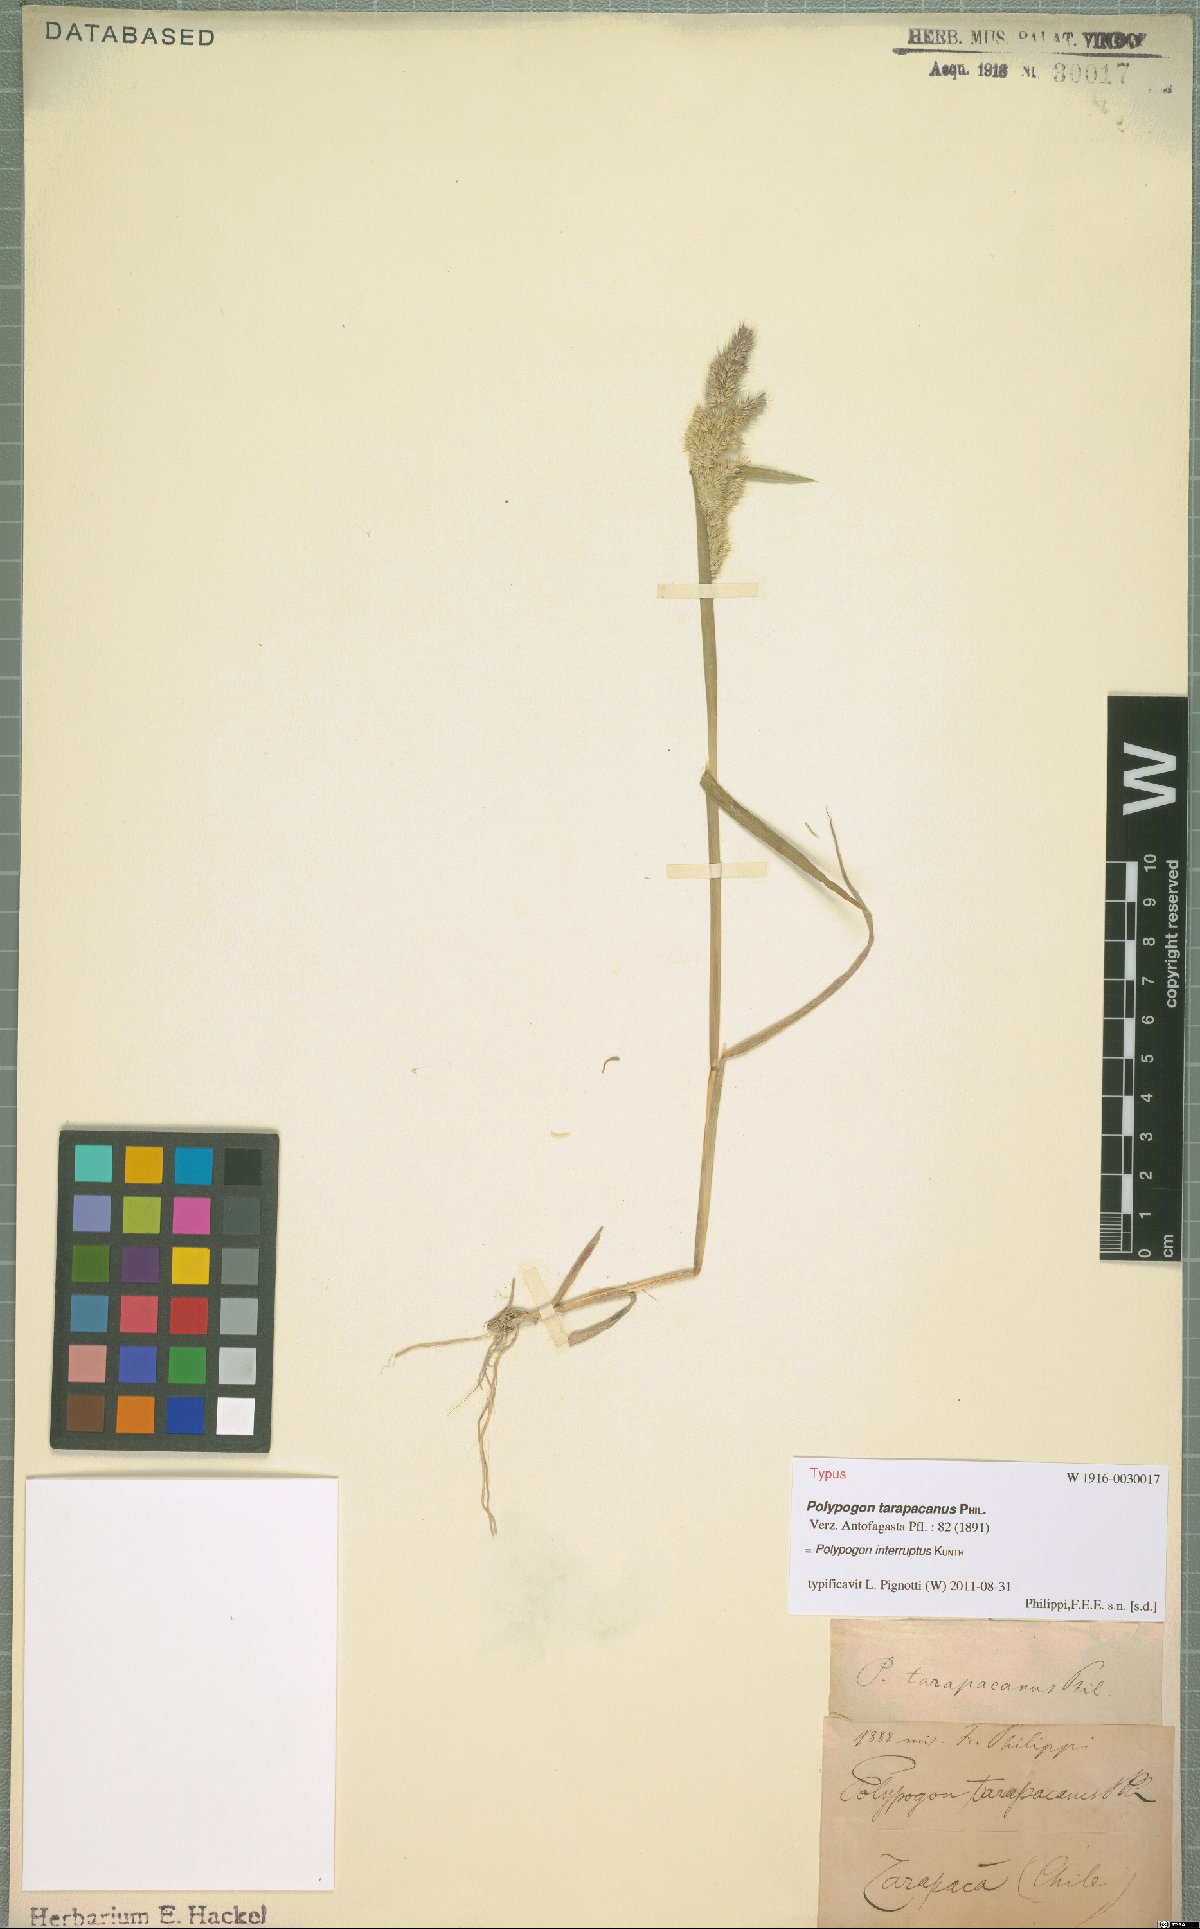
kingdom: Plantae
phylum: Tracheophyta
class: Liliopsida
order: Poales
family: Poaceae
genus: Polypogon
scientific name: Polypogon interruptus
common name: Ditch polypogon
